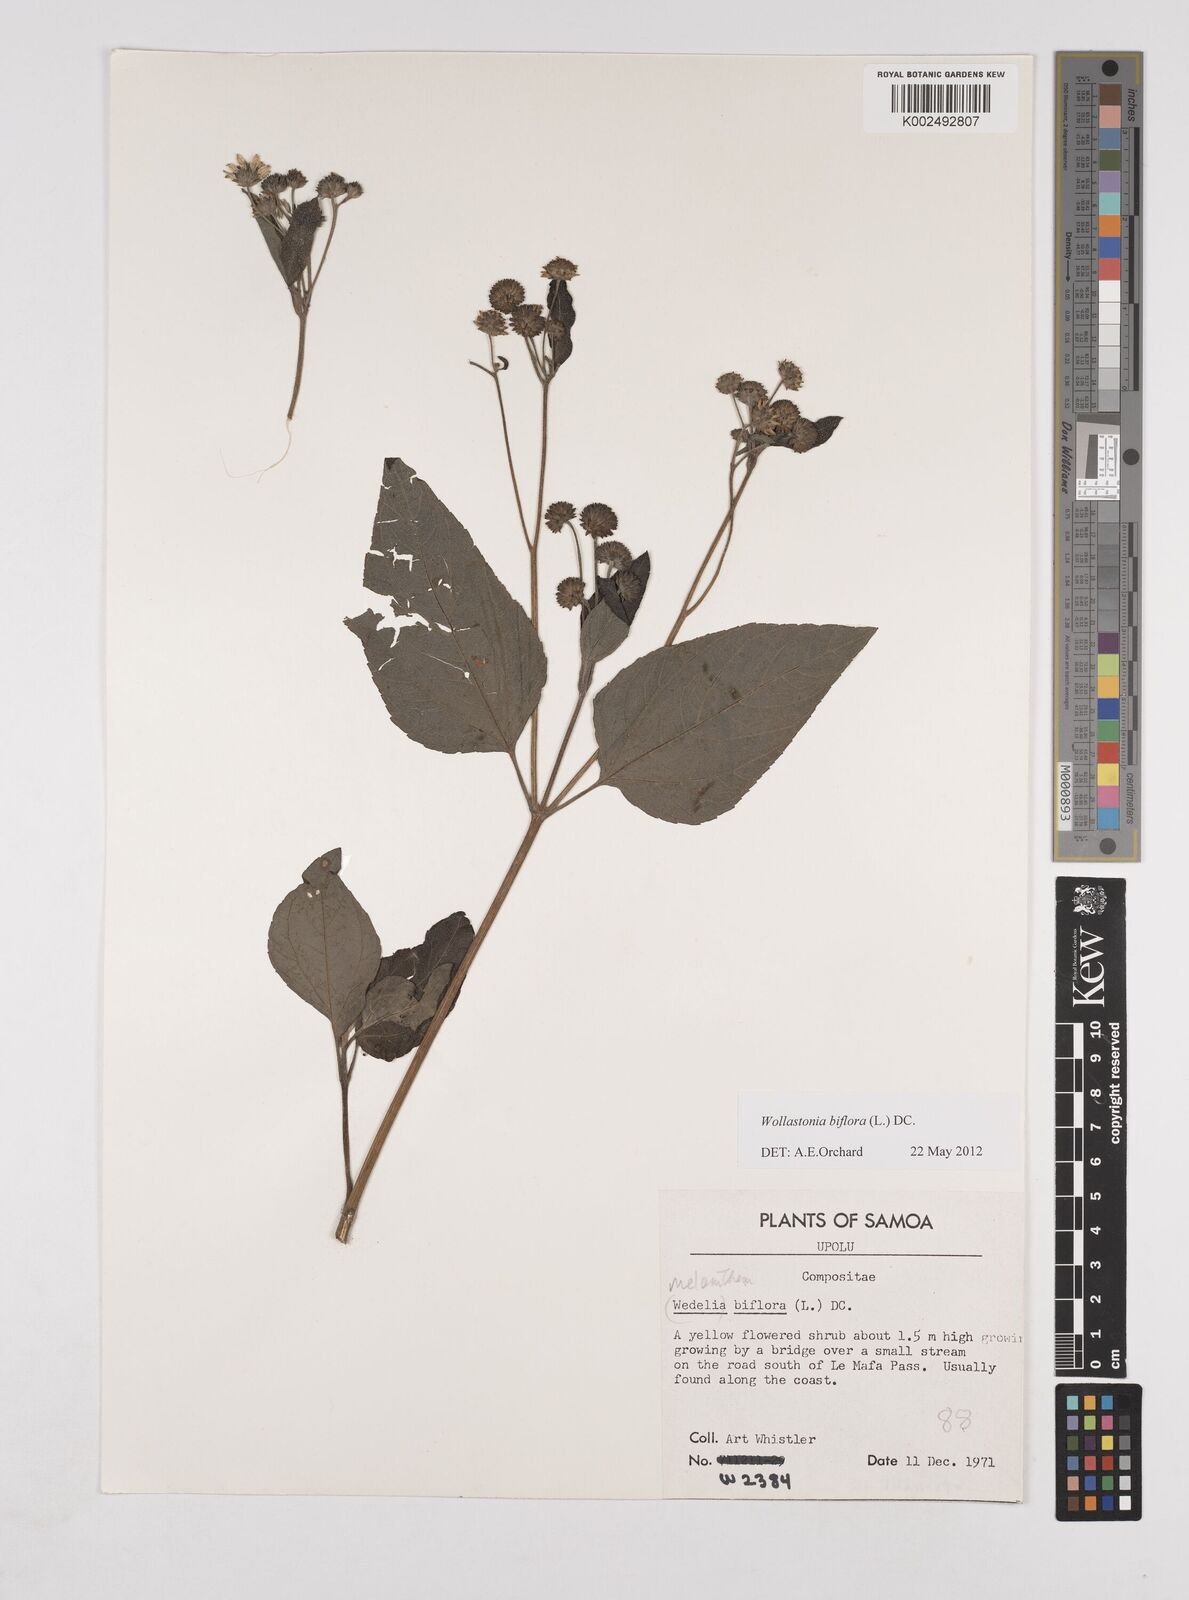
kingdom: Plantae
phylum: Tracheophyta
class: Magnoliopsida
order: Asterales
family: Asteraceae
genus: Wollastonia
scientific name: Wollastonia biflora
